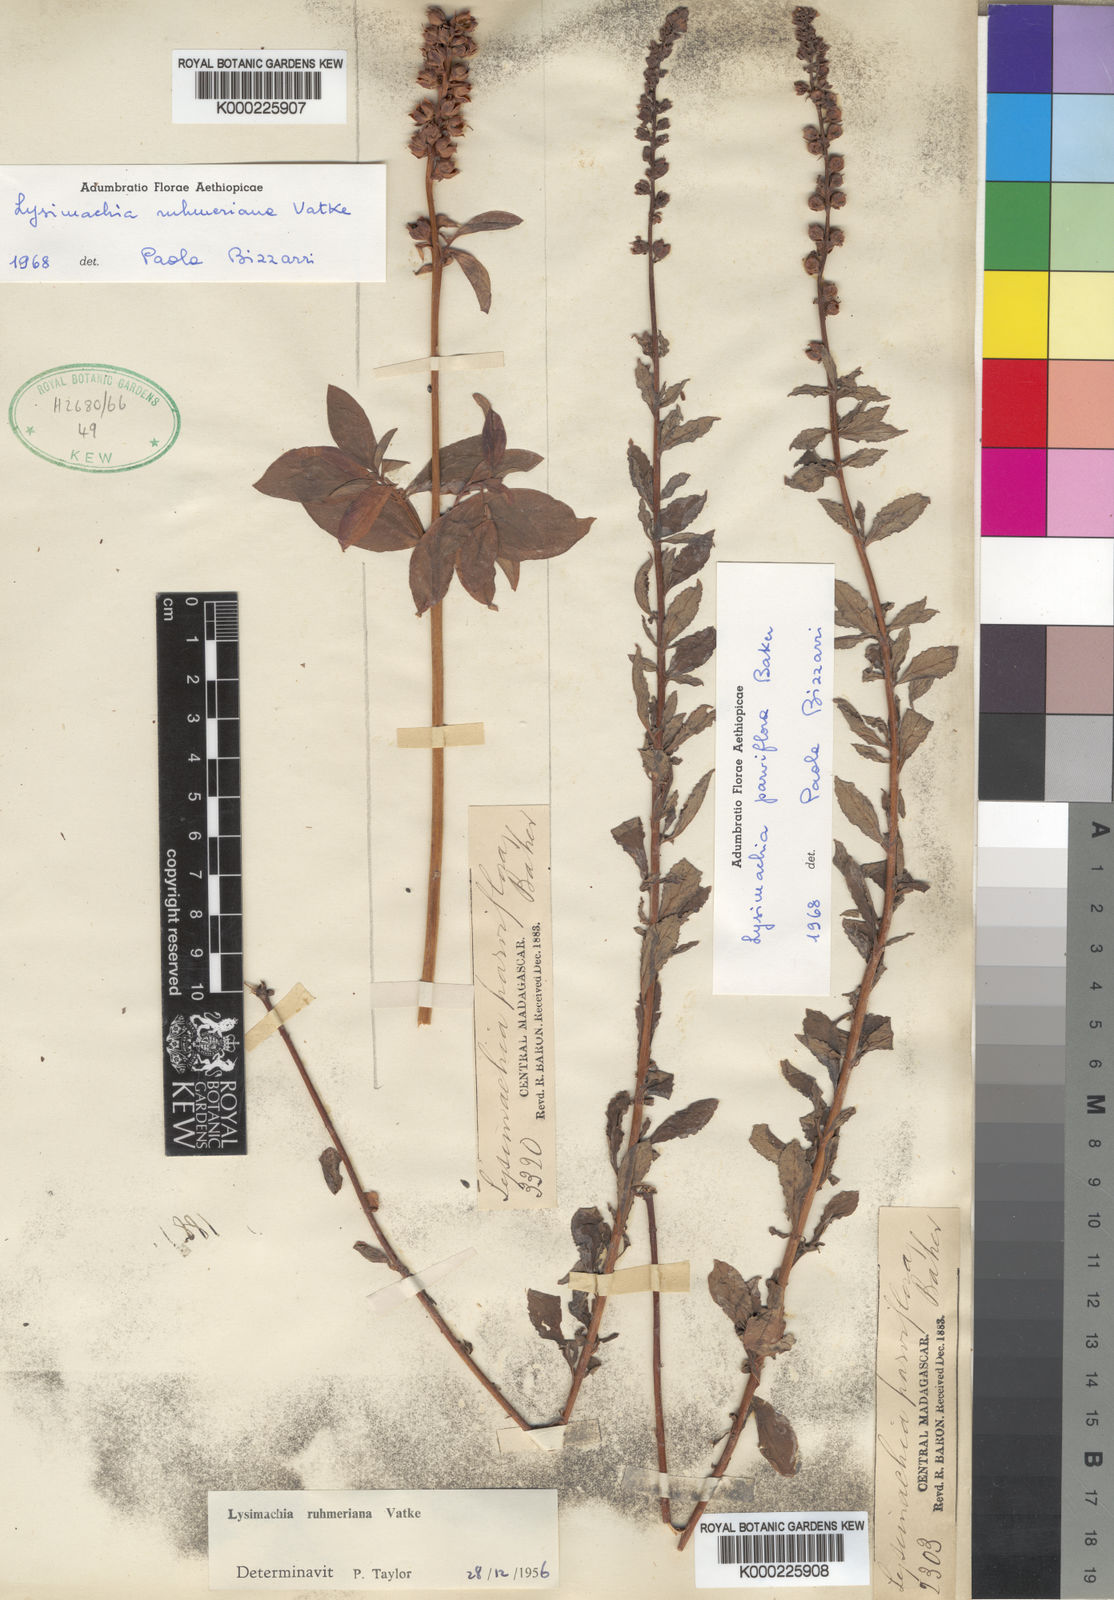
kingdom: Plantae
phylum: Tracheophyta
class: Magnoliopsida
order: Ericales
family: Primulaceae
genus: Lysimachia
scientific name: Lysimachia ruhmeriana
